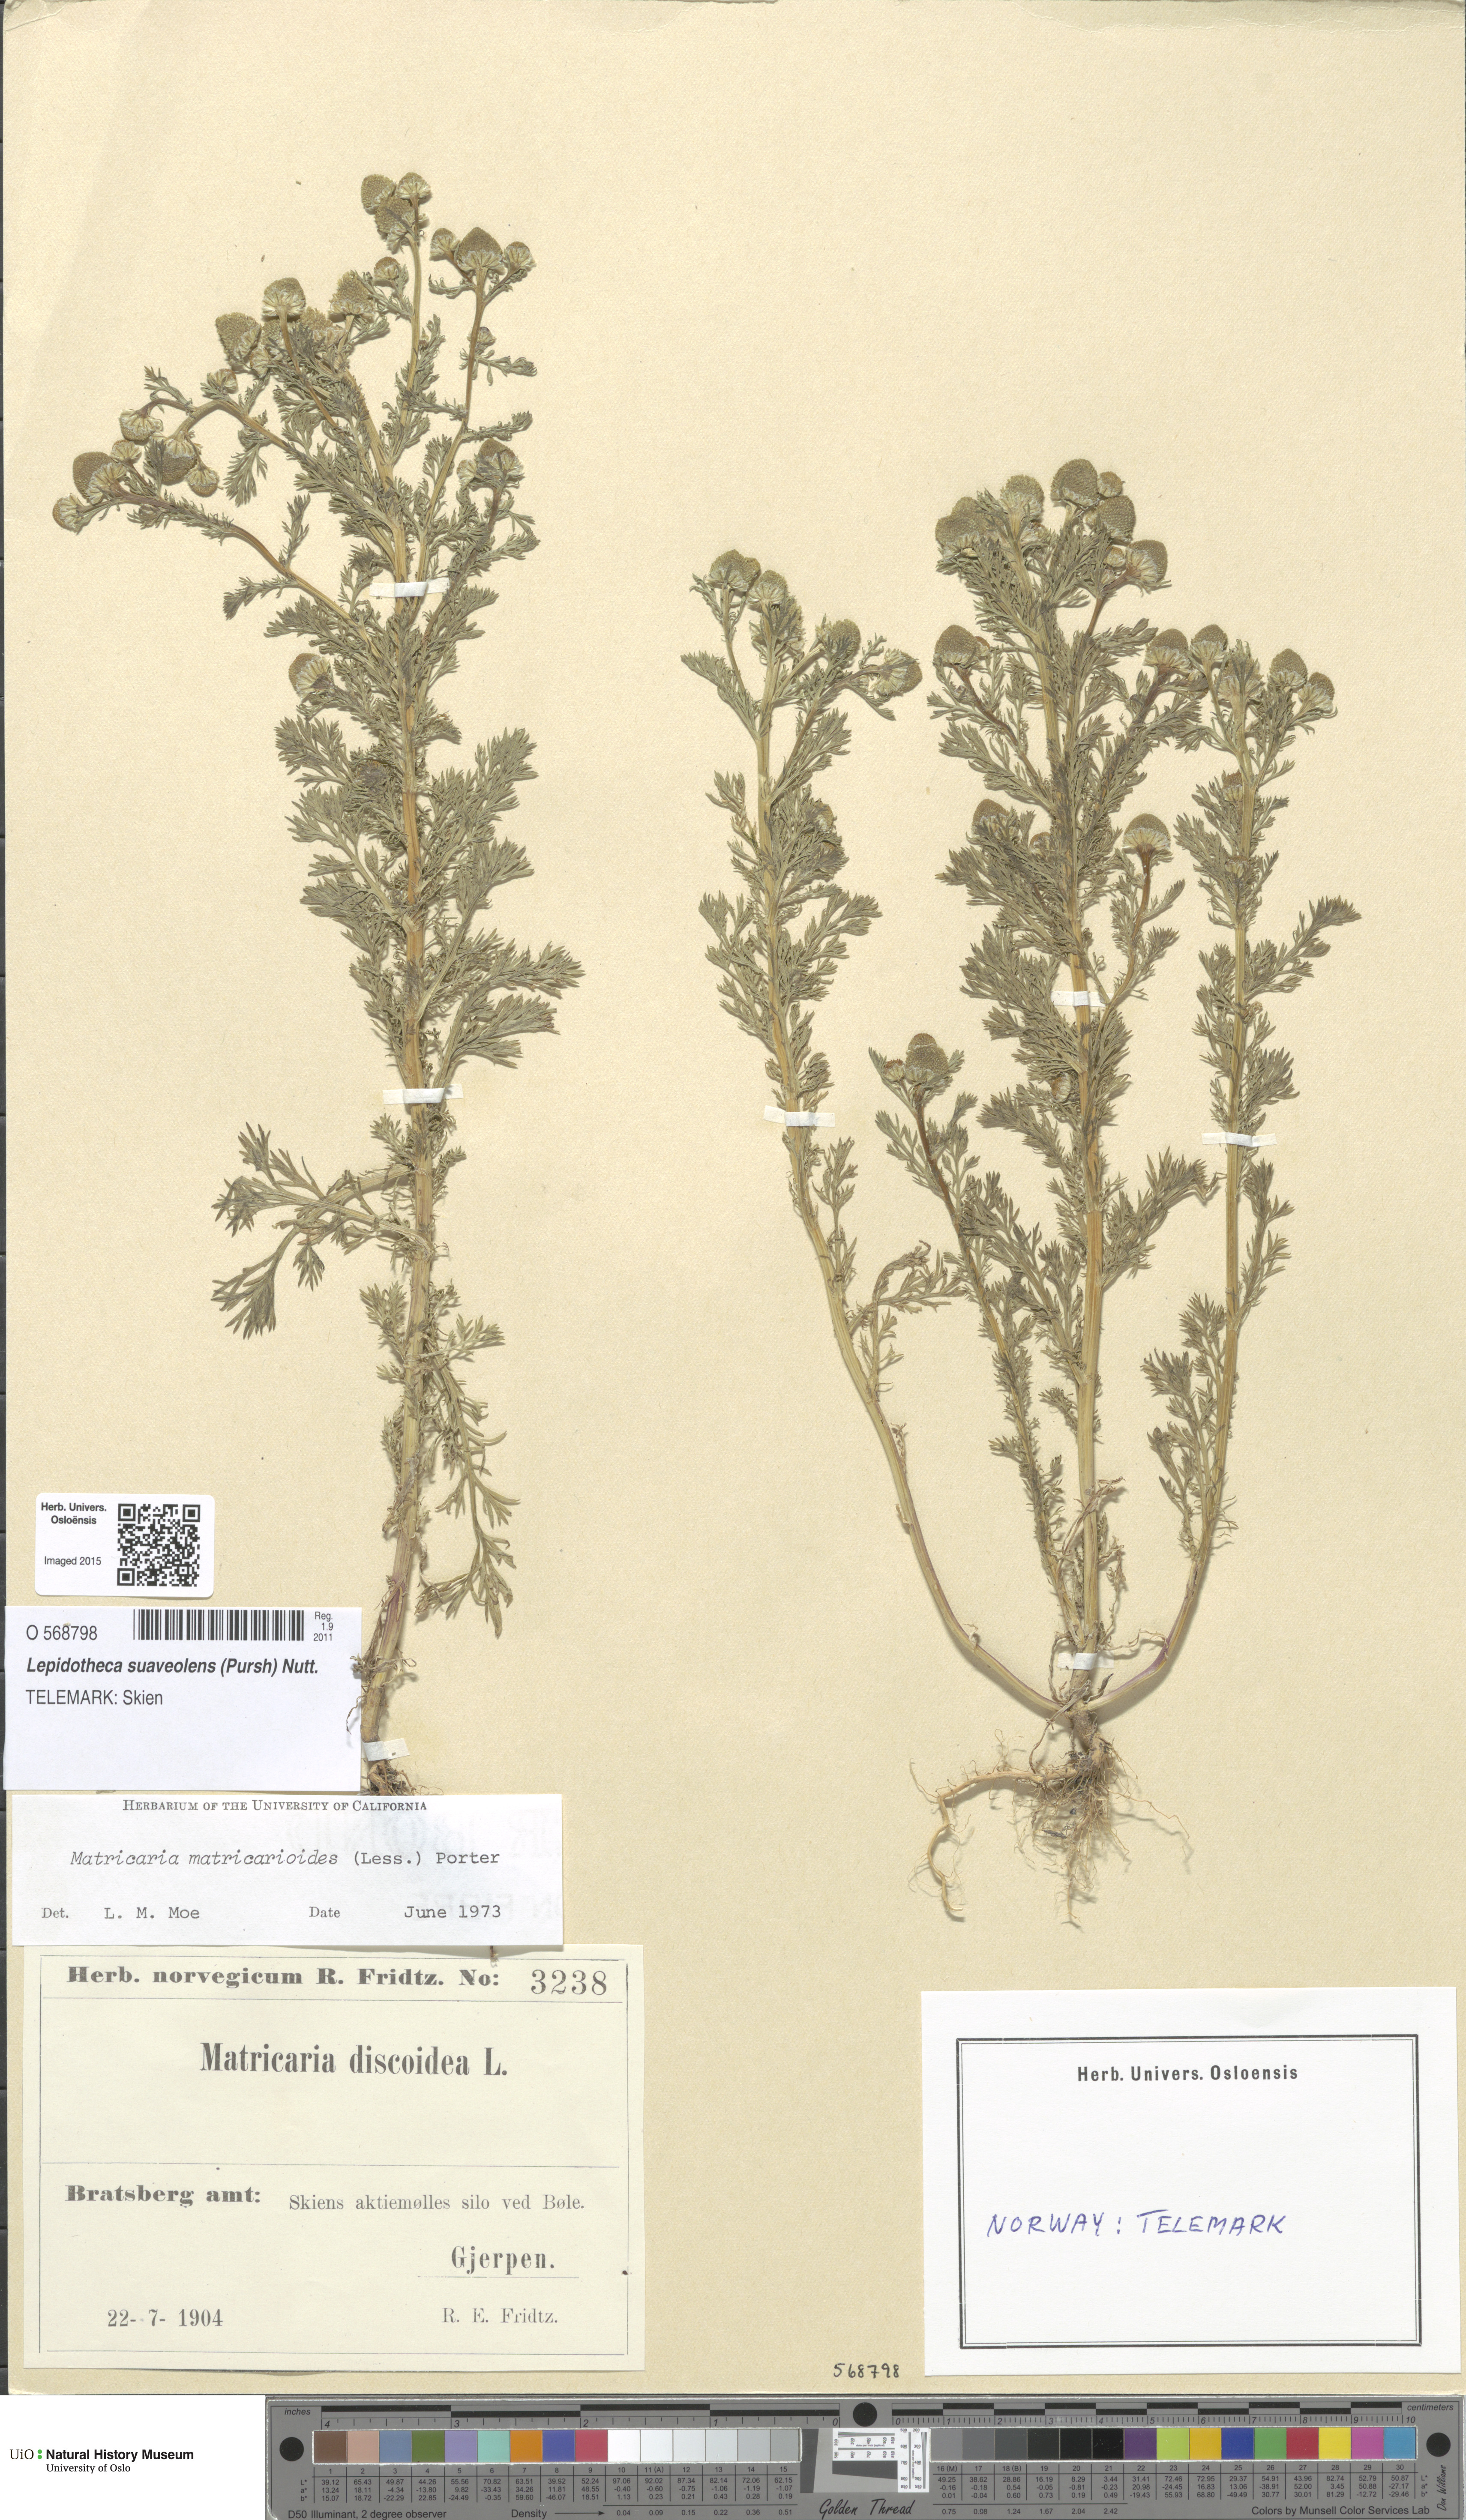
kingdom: Plantae
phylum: Tracheophyta
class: Magnoliopsida
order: Asterales
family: Asteraceae
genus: Matricaria
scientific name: Matricaria discoidea
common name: Disc mayweed
